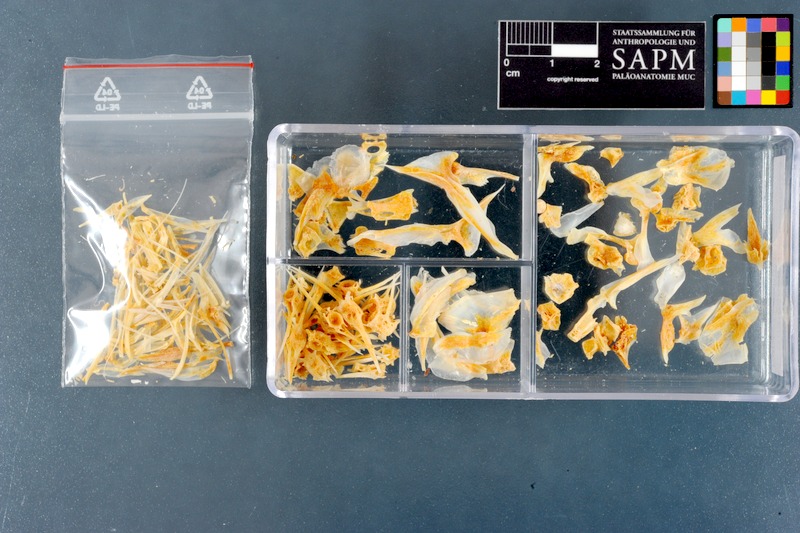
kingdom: Animalia
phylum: Chordata
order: Perciformes
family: Carangidae
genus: Gnathanodon
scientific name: Gnathanodon speciosus
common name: Golden toothless trevally
